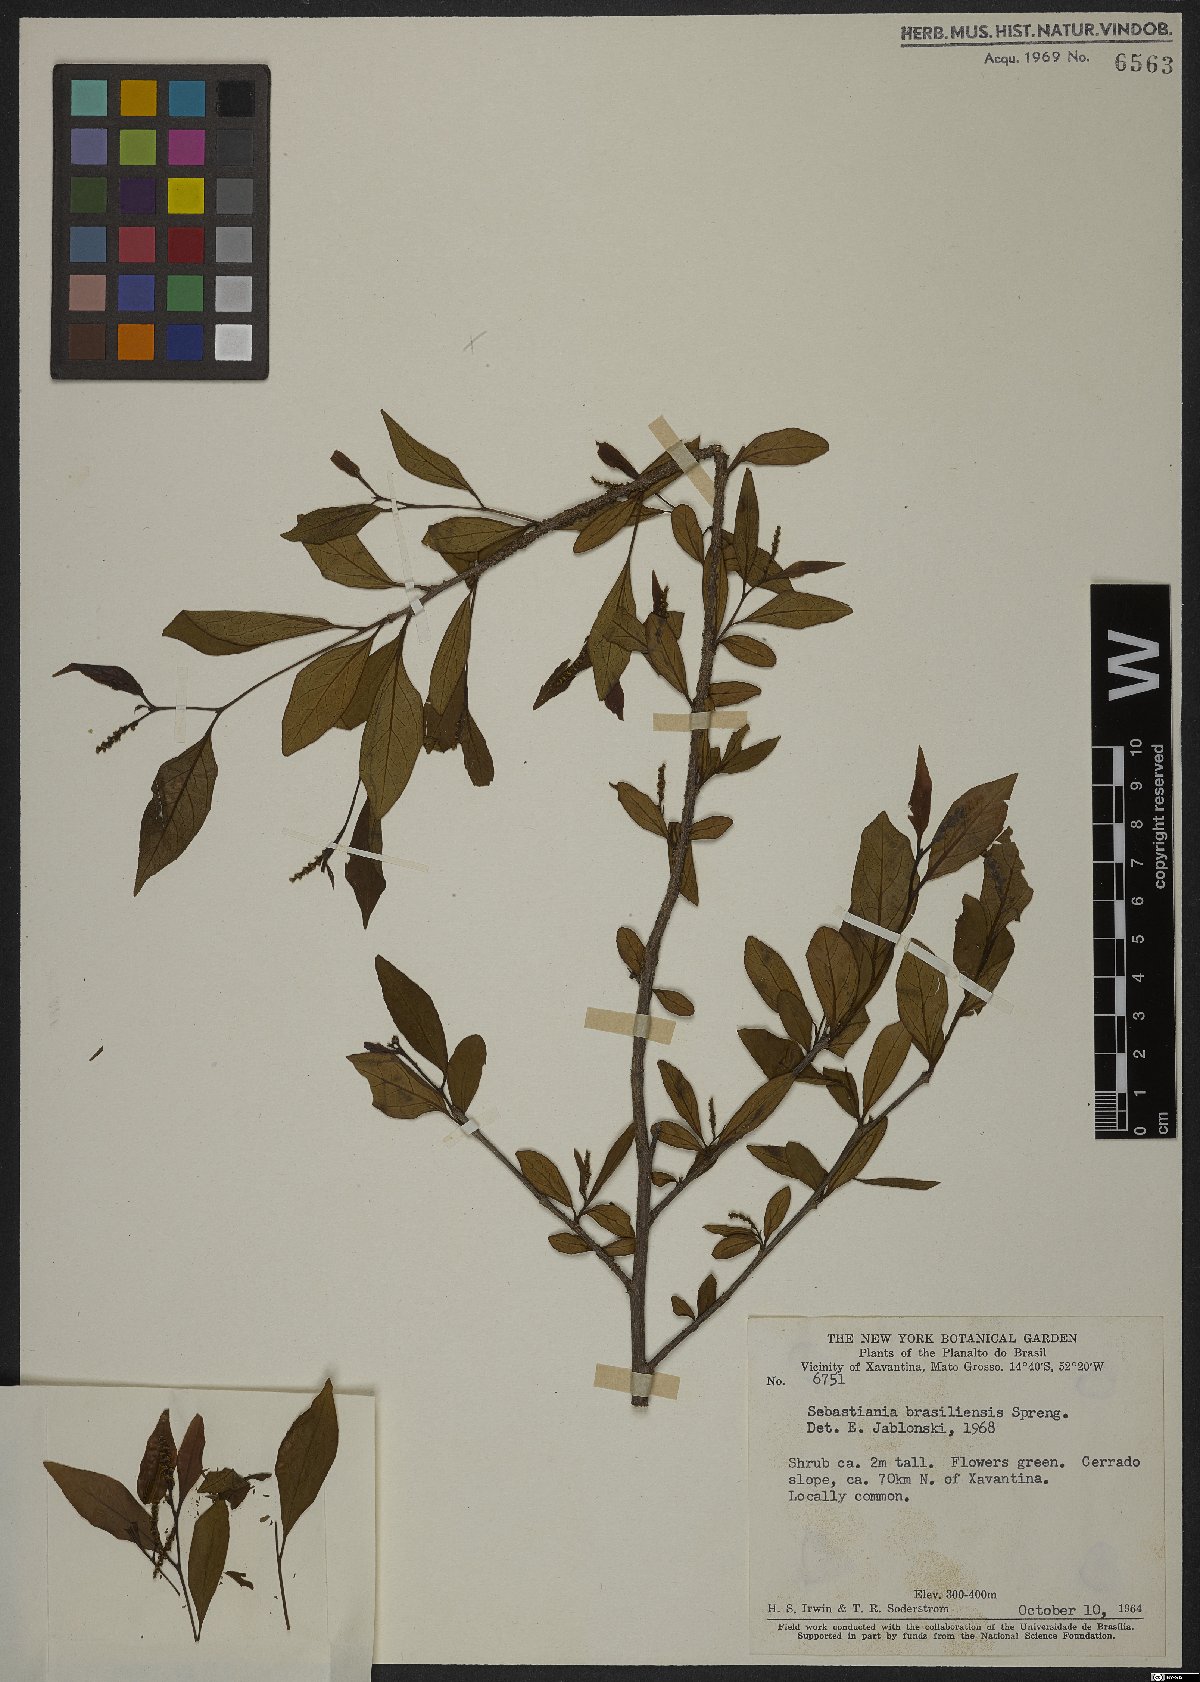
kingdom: Plantae
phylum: Tracheophyta
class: Magnoliopsida
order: Malpighiales
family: Euphorbiaceae
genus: Sebastiania
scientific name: Sebastiania brasiliensis
